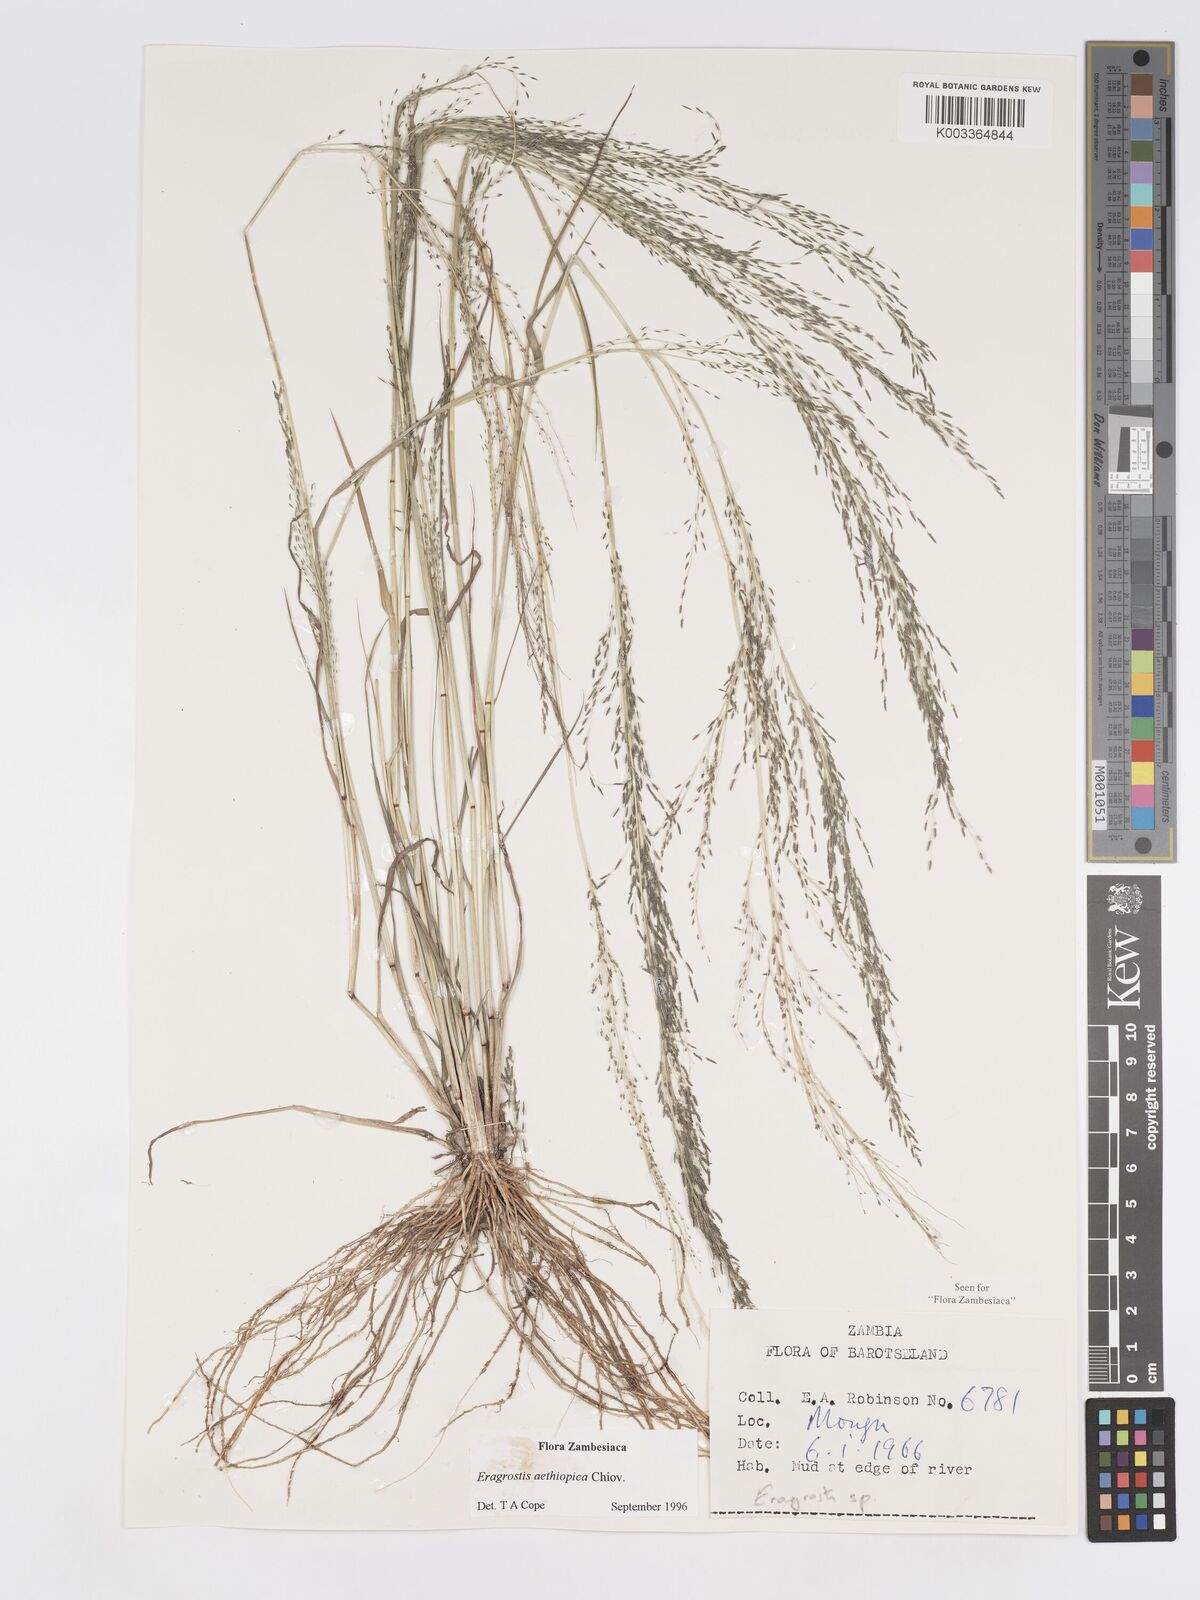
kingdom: Plantae
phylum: Tracheophyta
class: Liliopsida
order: Poales
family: Poaceae
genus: Eragrostis
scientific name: Eragrostis aethiopica
